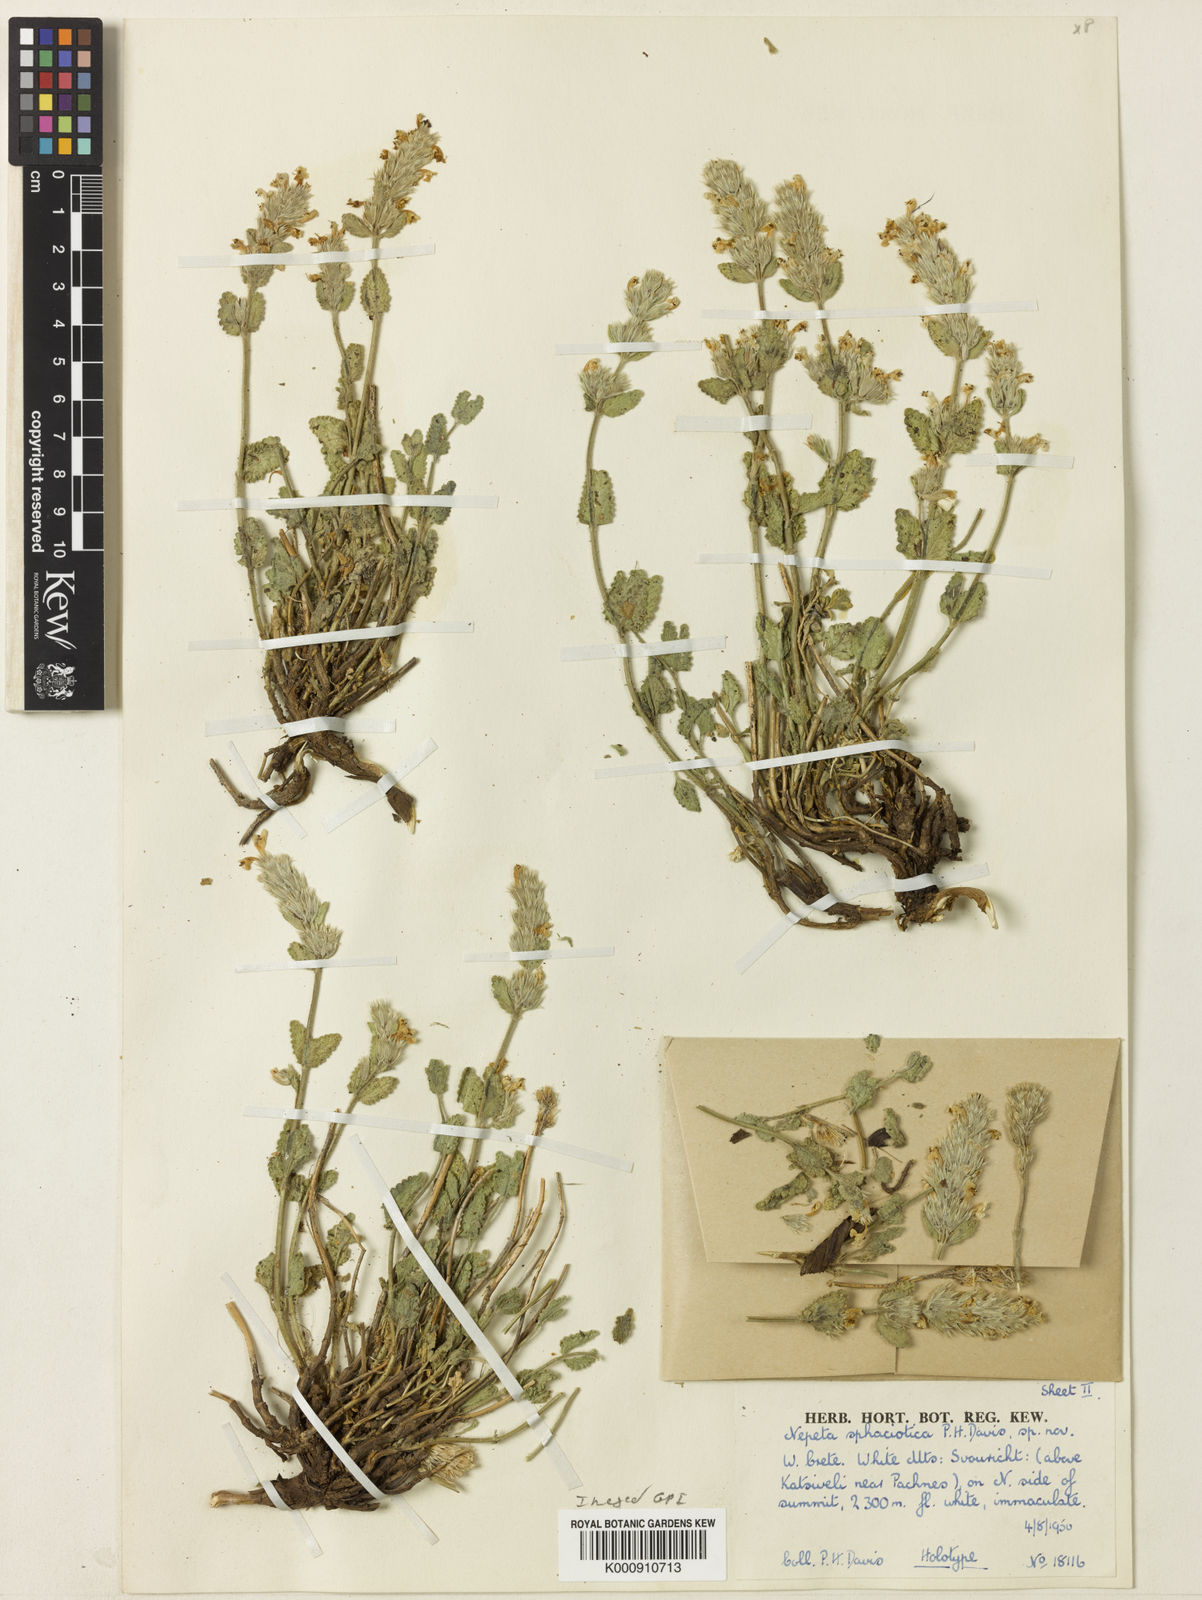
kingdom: Plantae
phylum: Tracheophyta
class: Magnoliopsida
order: Lamiales
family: Lamiaceae
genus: Nepeta
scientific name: Nepeta sphaciotica
